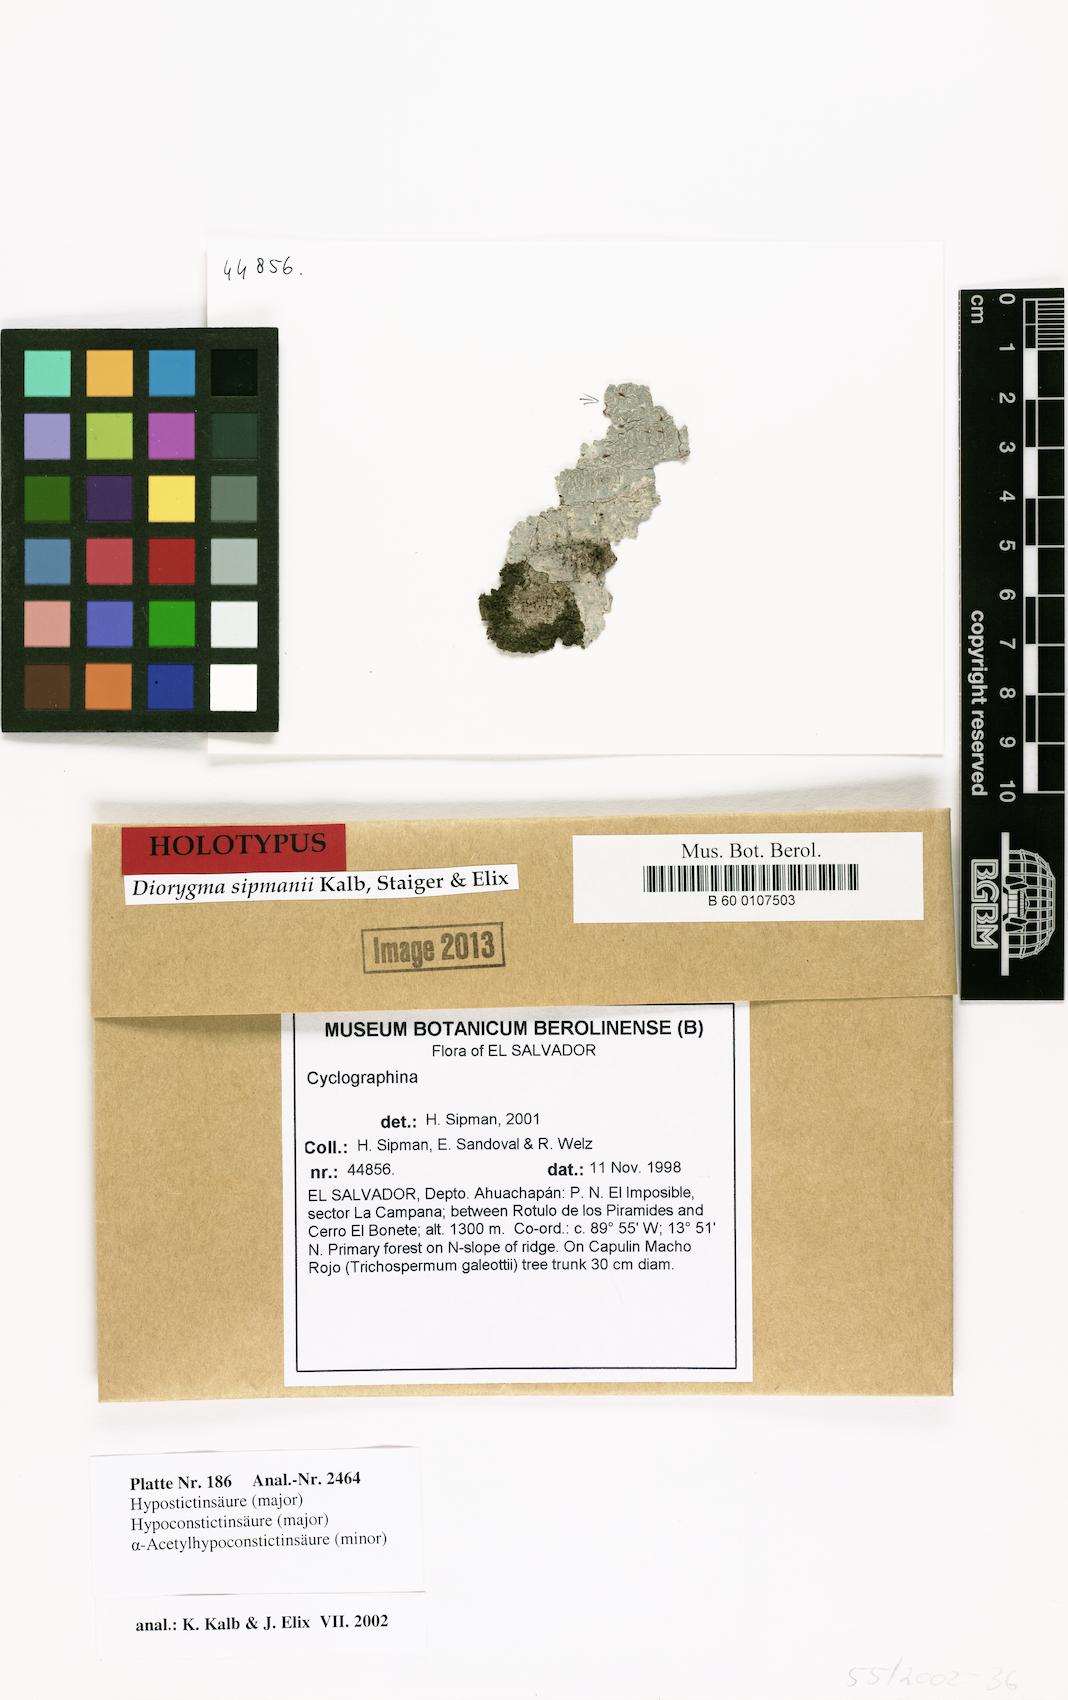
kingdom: Fungi
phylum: Ascomycota
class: Lecanoromycetes
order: Ostropales
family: Graphidaceae
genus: Diorygma
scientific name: Diorygma sipmanii
